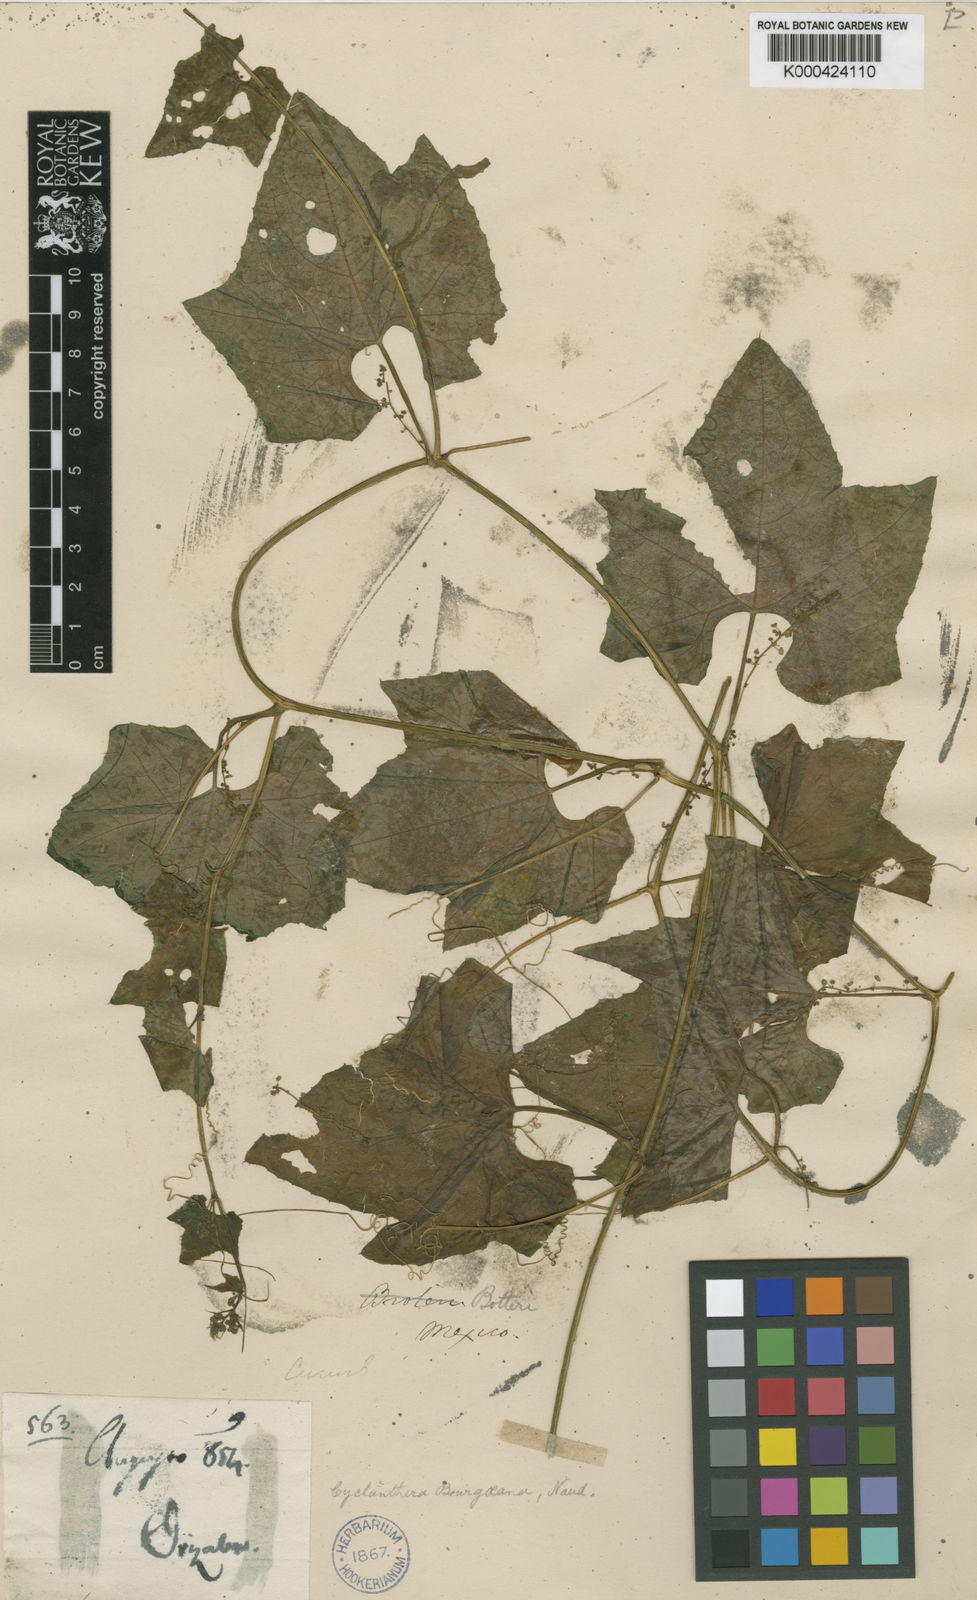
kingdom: Plantae
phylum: Tracheophyta
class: Magnoliopsida
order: Cucurbitales
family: Cucurbitaceae
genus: Cyclanthera
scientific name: Cyclanthera brachystachya
